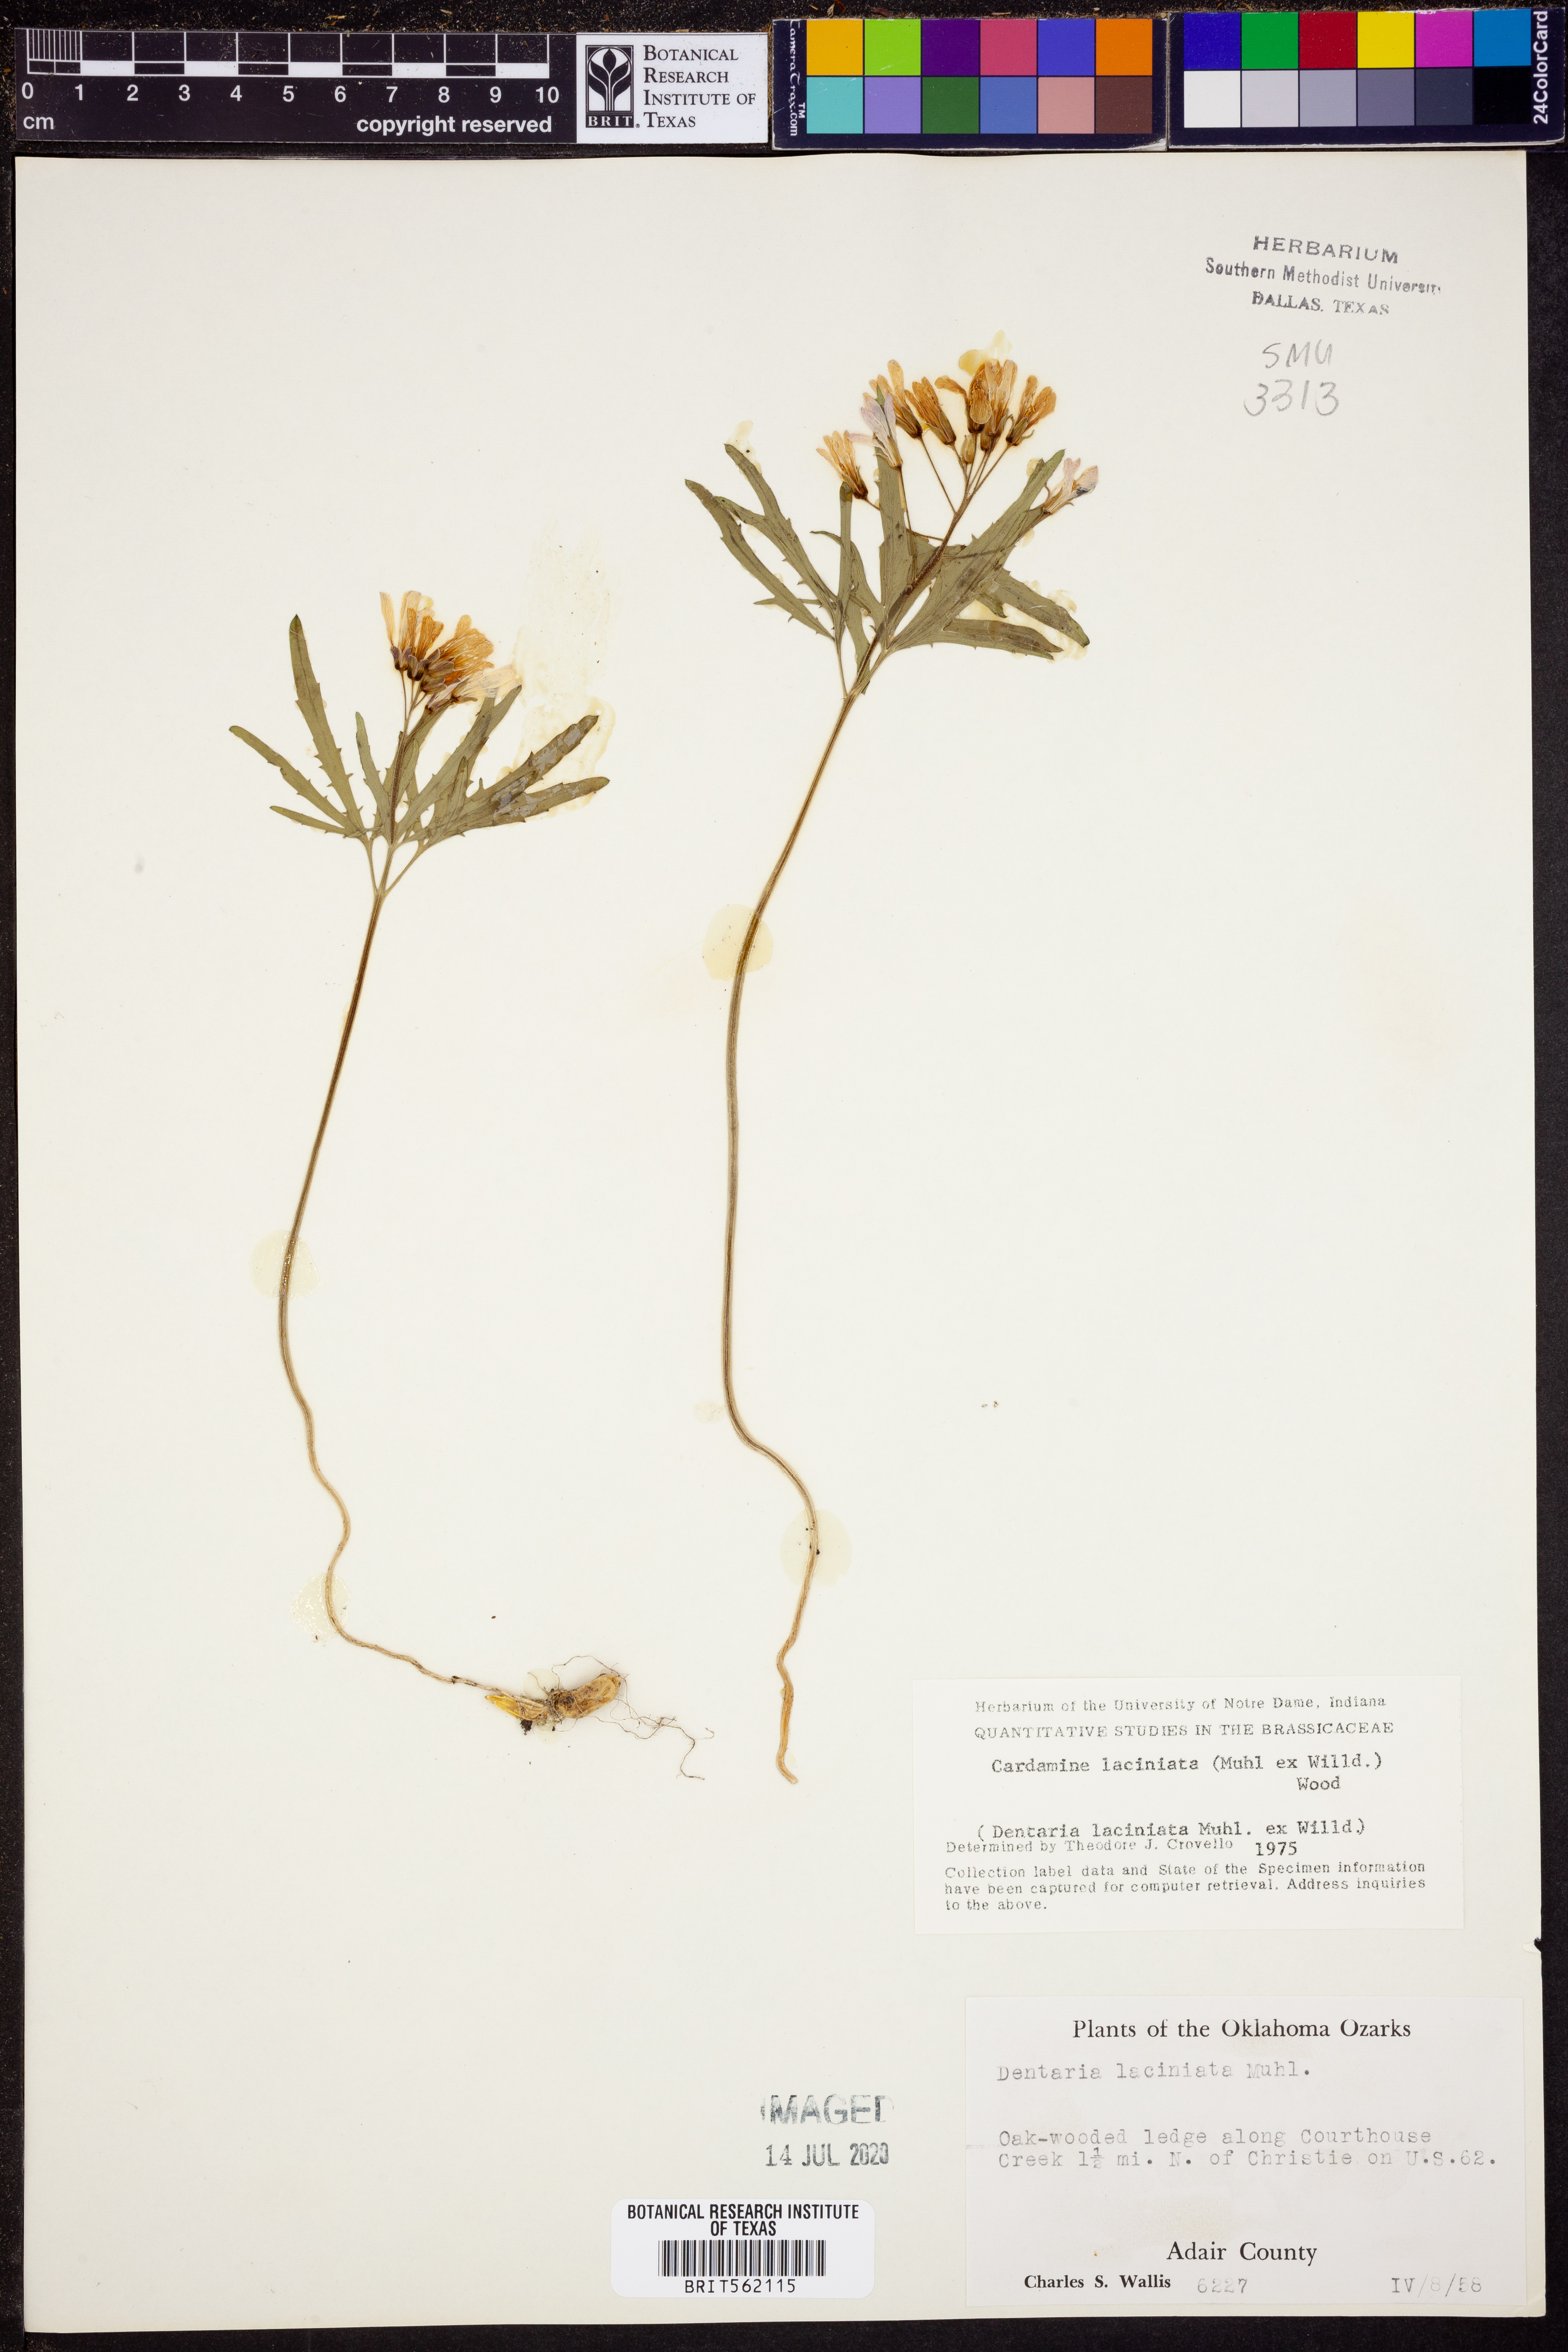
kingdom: Plantae
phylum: Tracheophyta
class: Magnoliopsida
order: Brassicales
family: Brassicaceae
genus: Rorippa
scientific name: Rorippa laciniata
